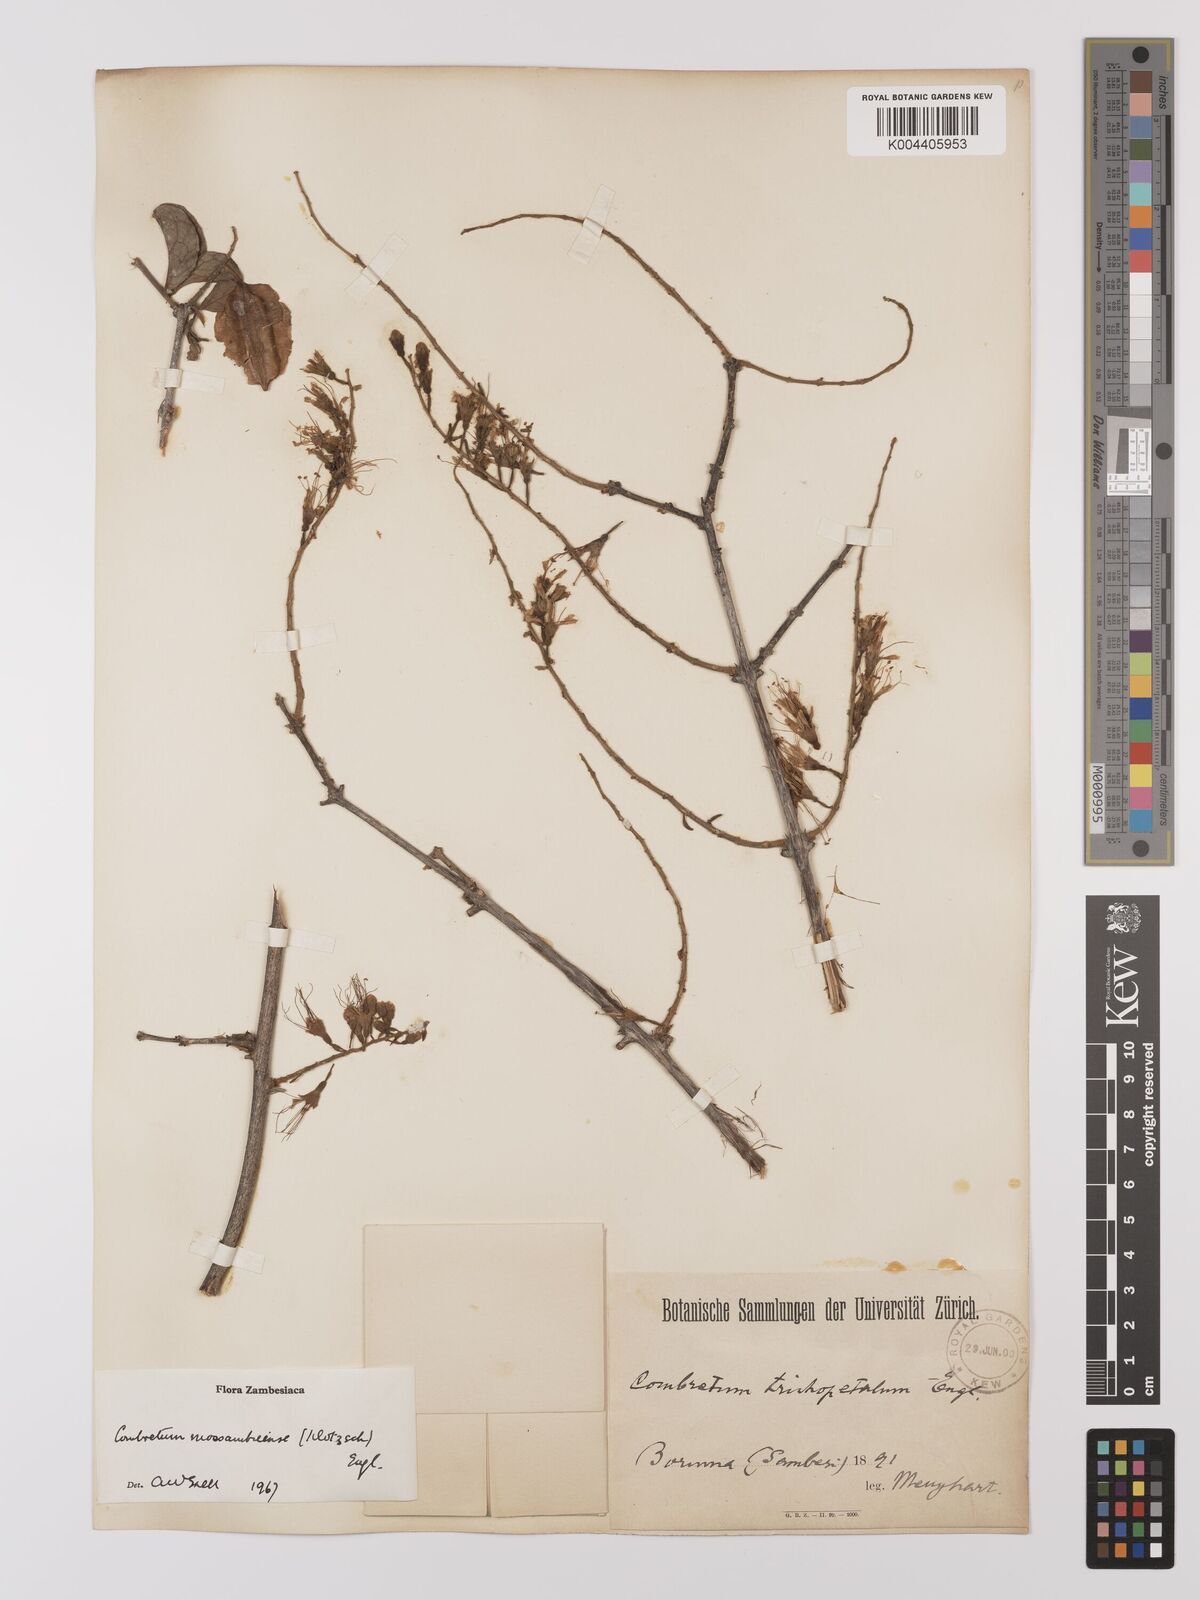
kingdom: Plantae
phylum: Tracheophyta
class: Magnoliopsida
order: Myrtales
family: Combretaceae
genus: Combretum
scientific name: Combretum mossambicense
